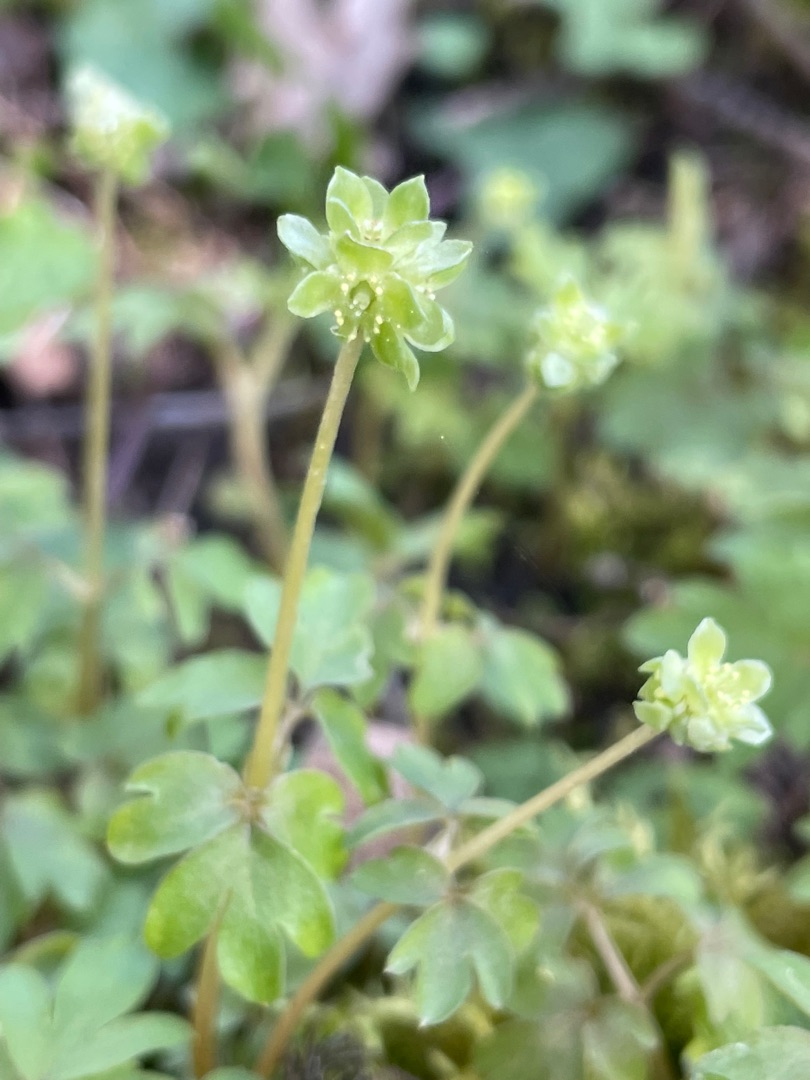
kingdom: Plantae
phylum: Tracheophyta
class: Magnoliopsida
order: Dipsacales
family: Viburnaceae
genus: Adoxa
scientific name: Adoxa moschatellina
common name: Desmerurt
